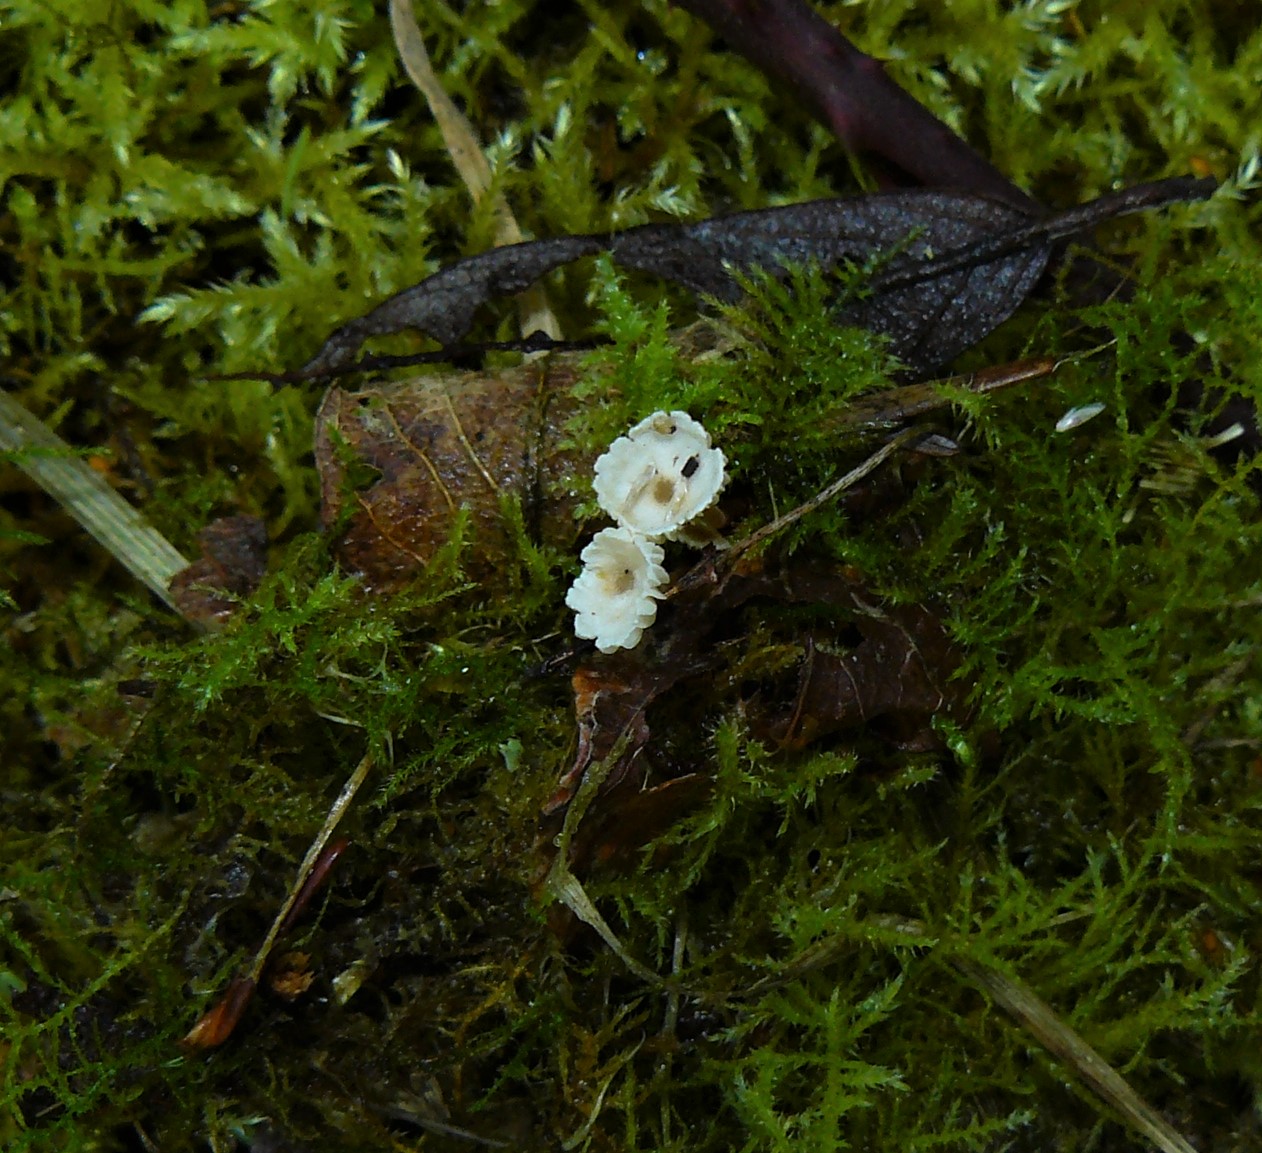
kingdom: Fungi
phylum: Basidiomycota
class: Agaricomycetes
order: Agaricales
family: Tricholomataceae
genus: Collybia
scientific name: Collybia
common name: lighat
